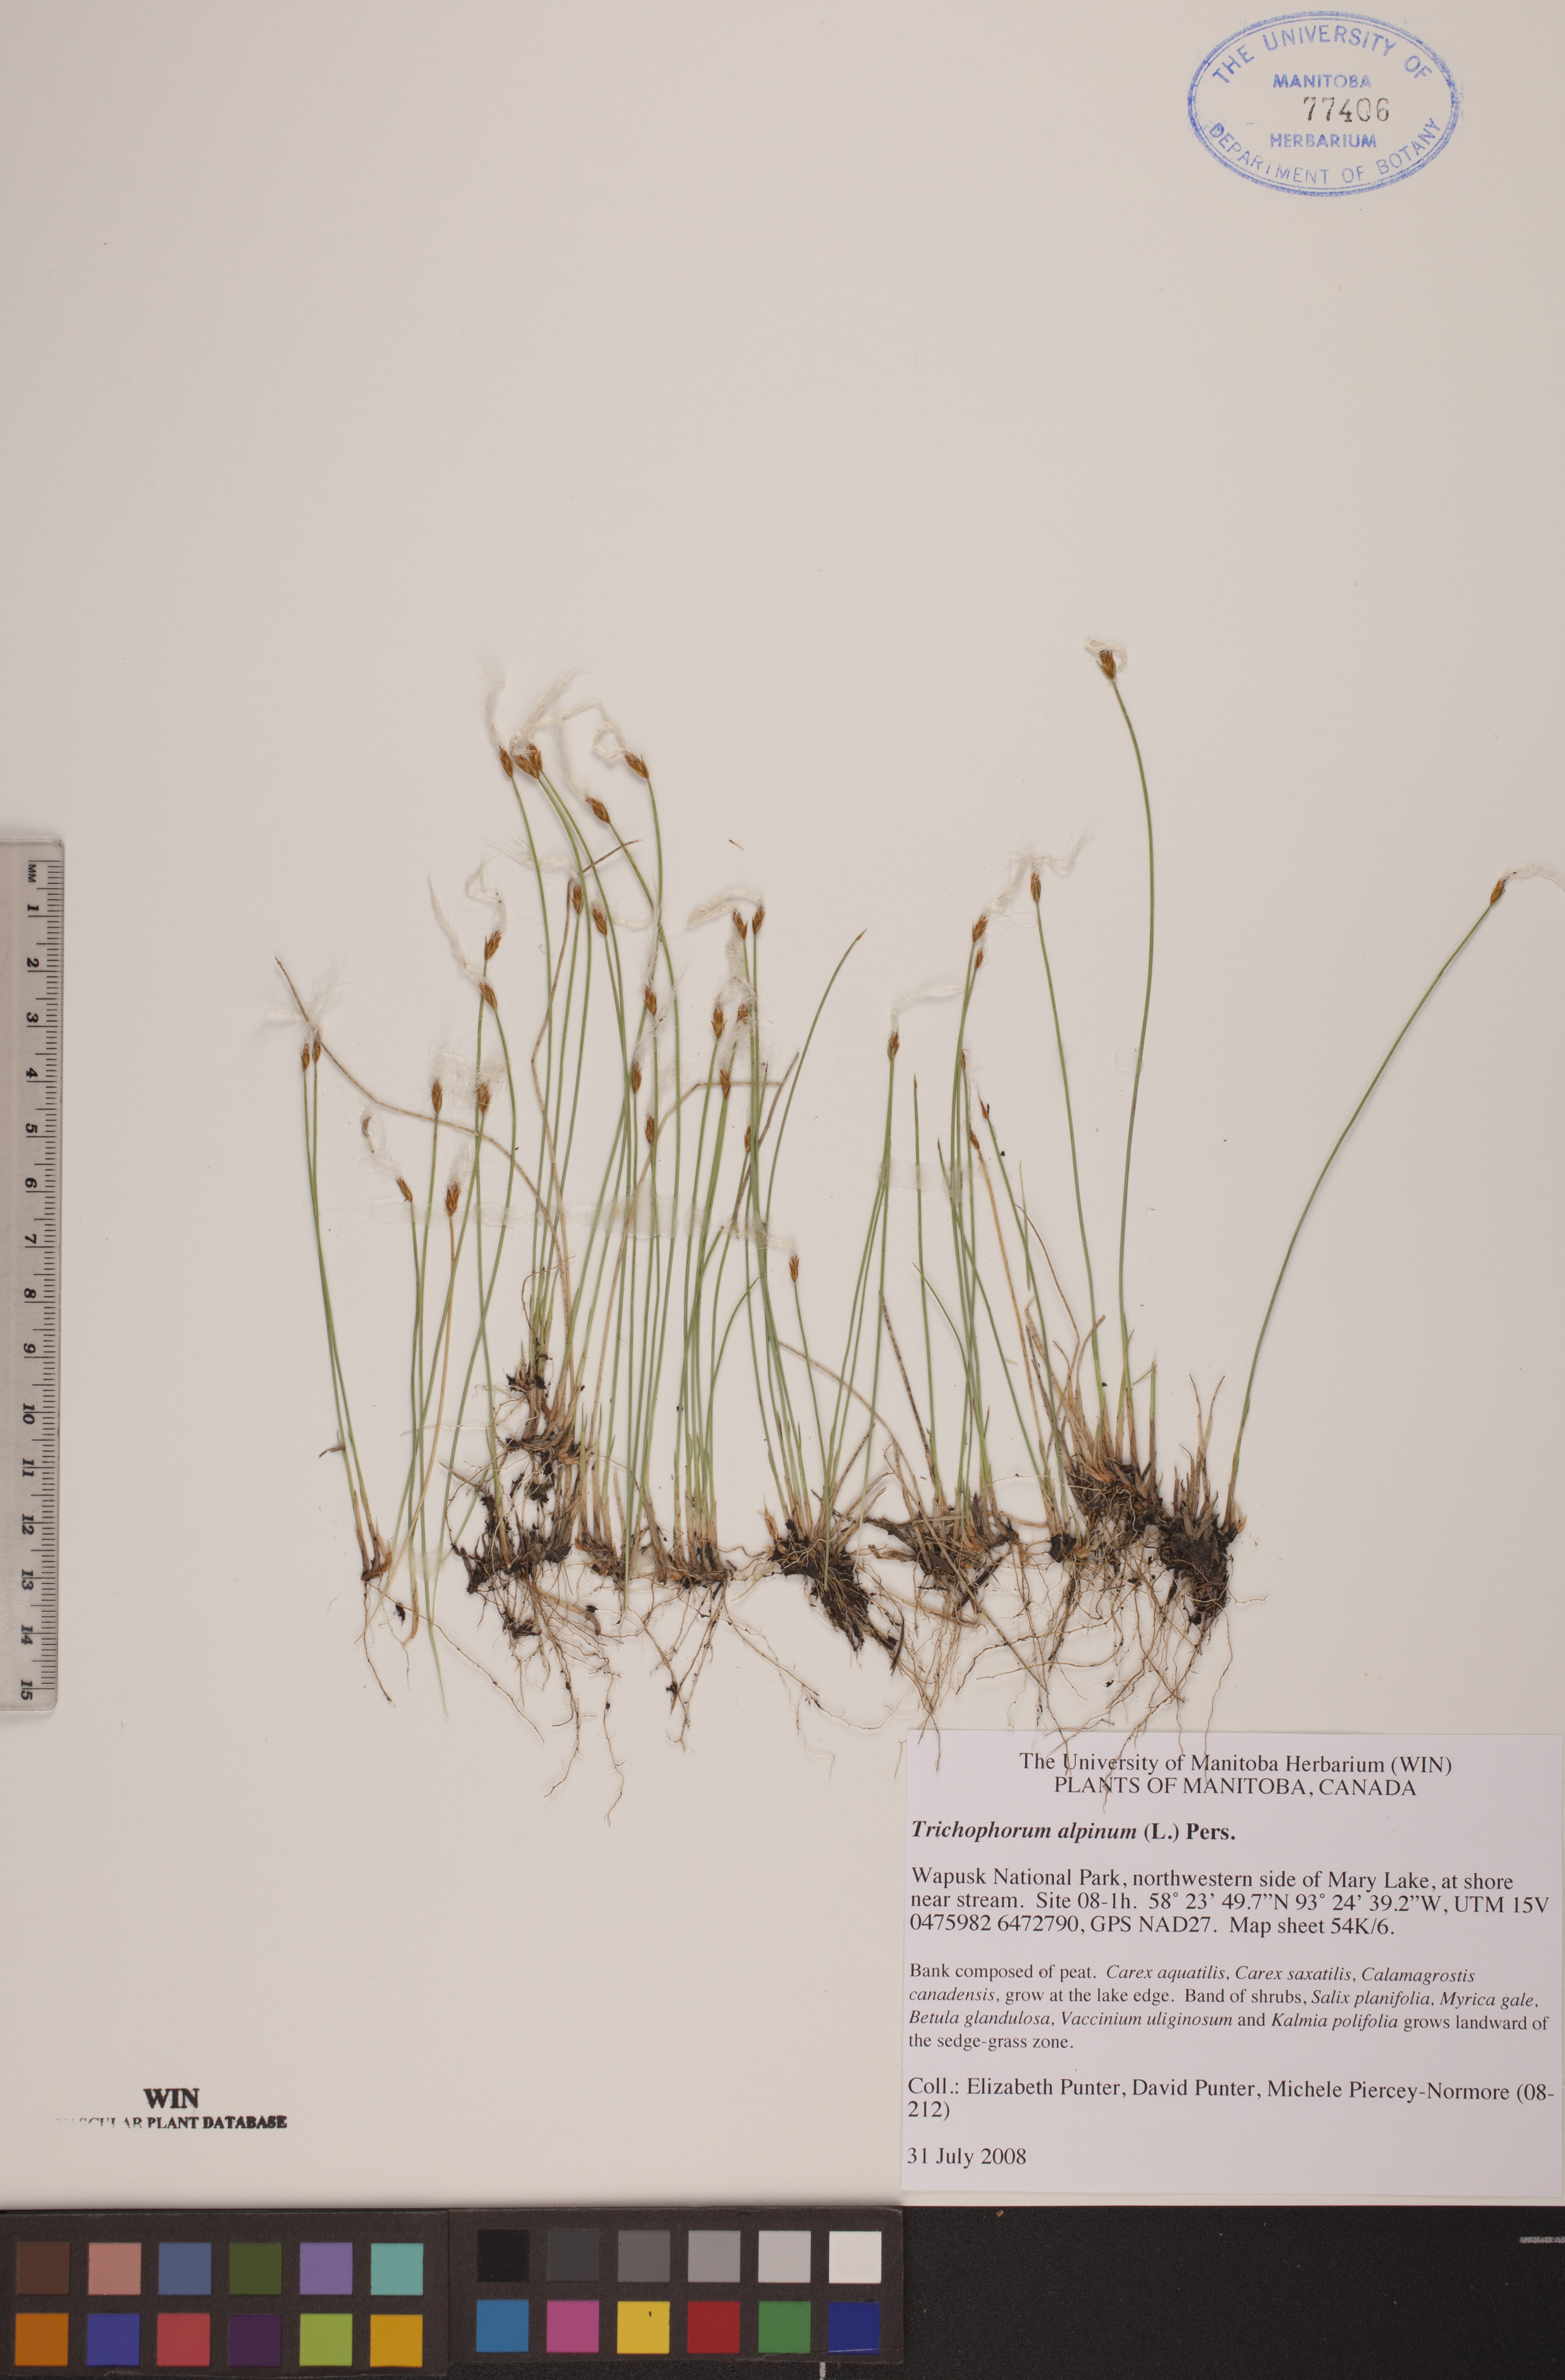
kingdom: Plantae
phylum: Tracheophyta
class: Liliopsida
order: Poales
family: Cyperaceae
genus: Trichophorum
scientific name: Trichophorum alpinum
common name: Alpine bulrush
